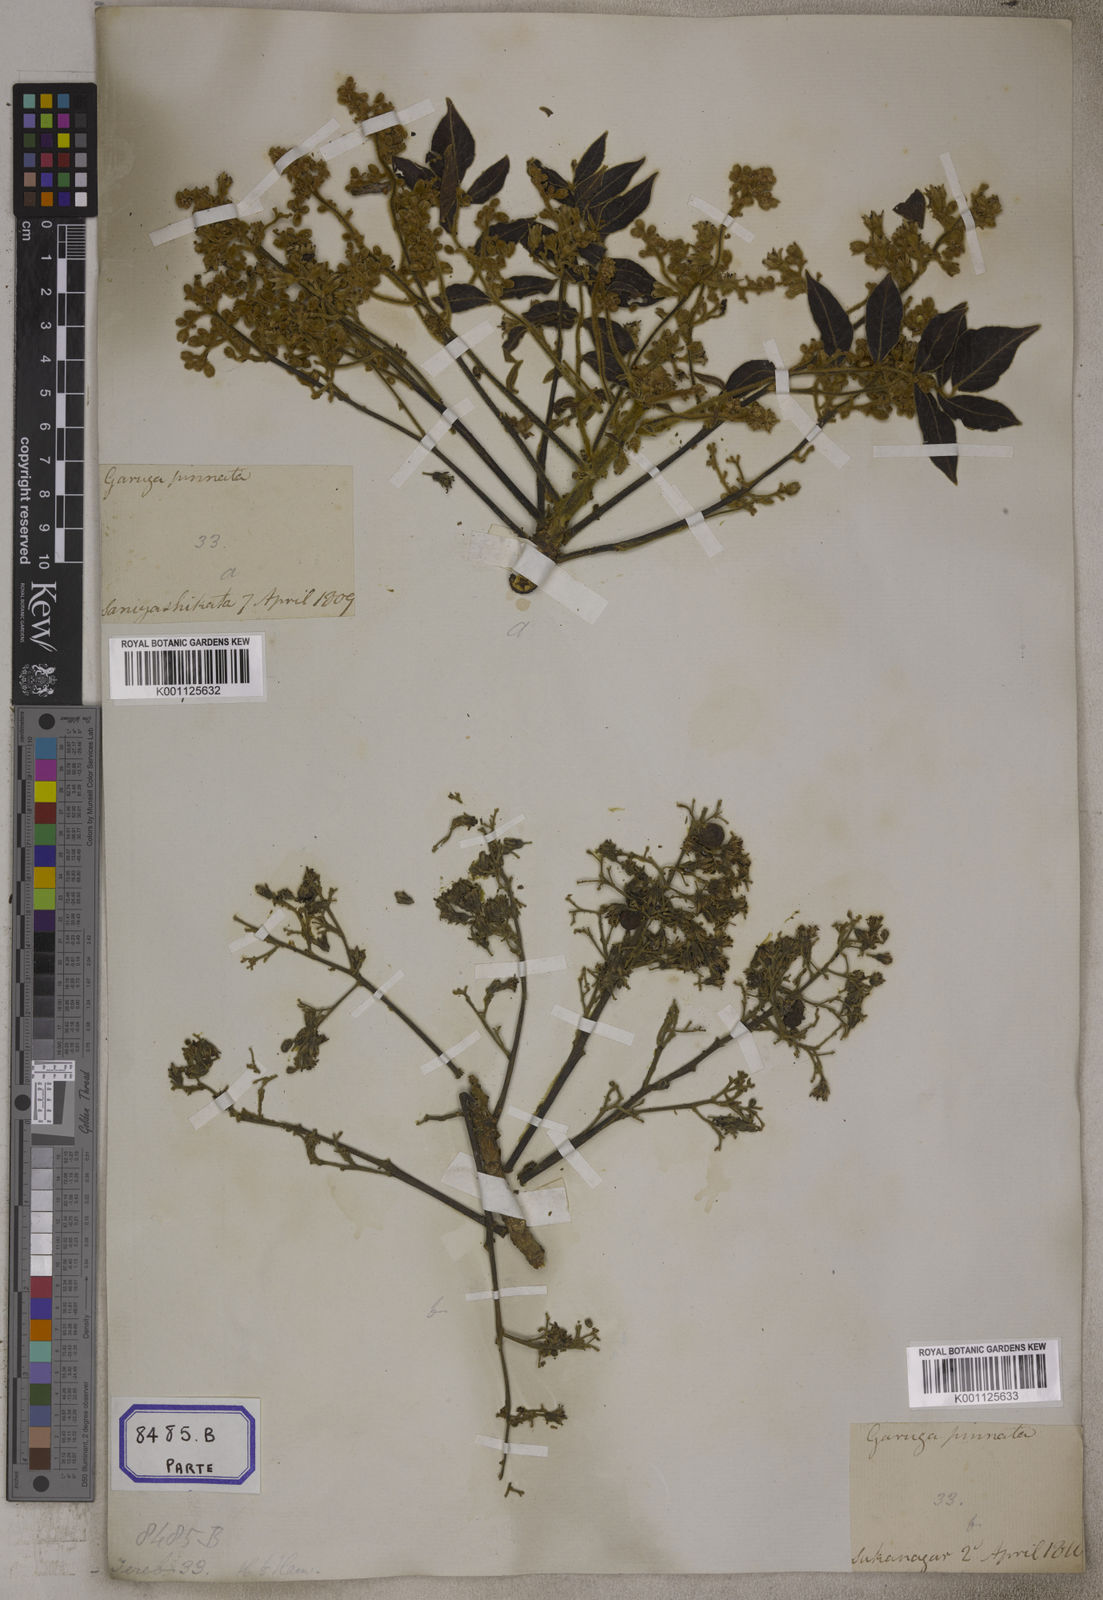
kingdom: Plantae
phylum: Tracheophyta
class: Magnoliopsida
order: Sapindales
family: Burseraceae
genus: Garuga
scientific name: Garuga pinnata
